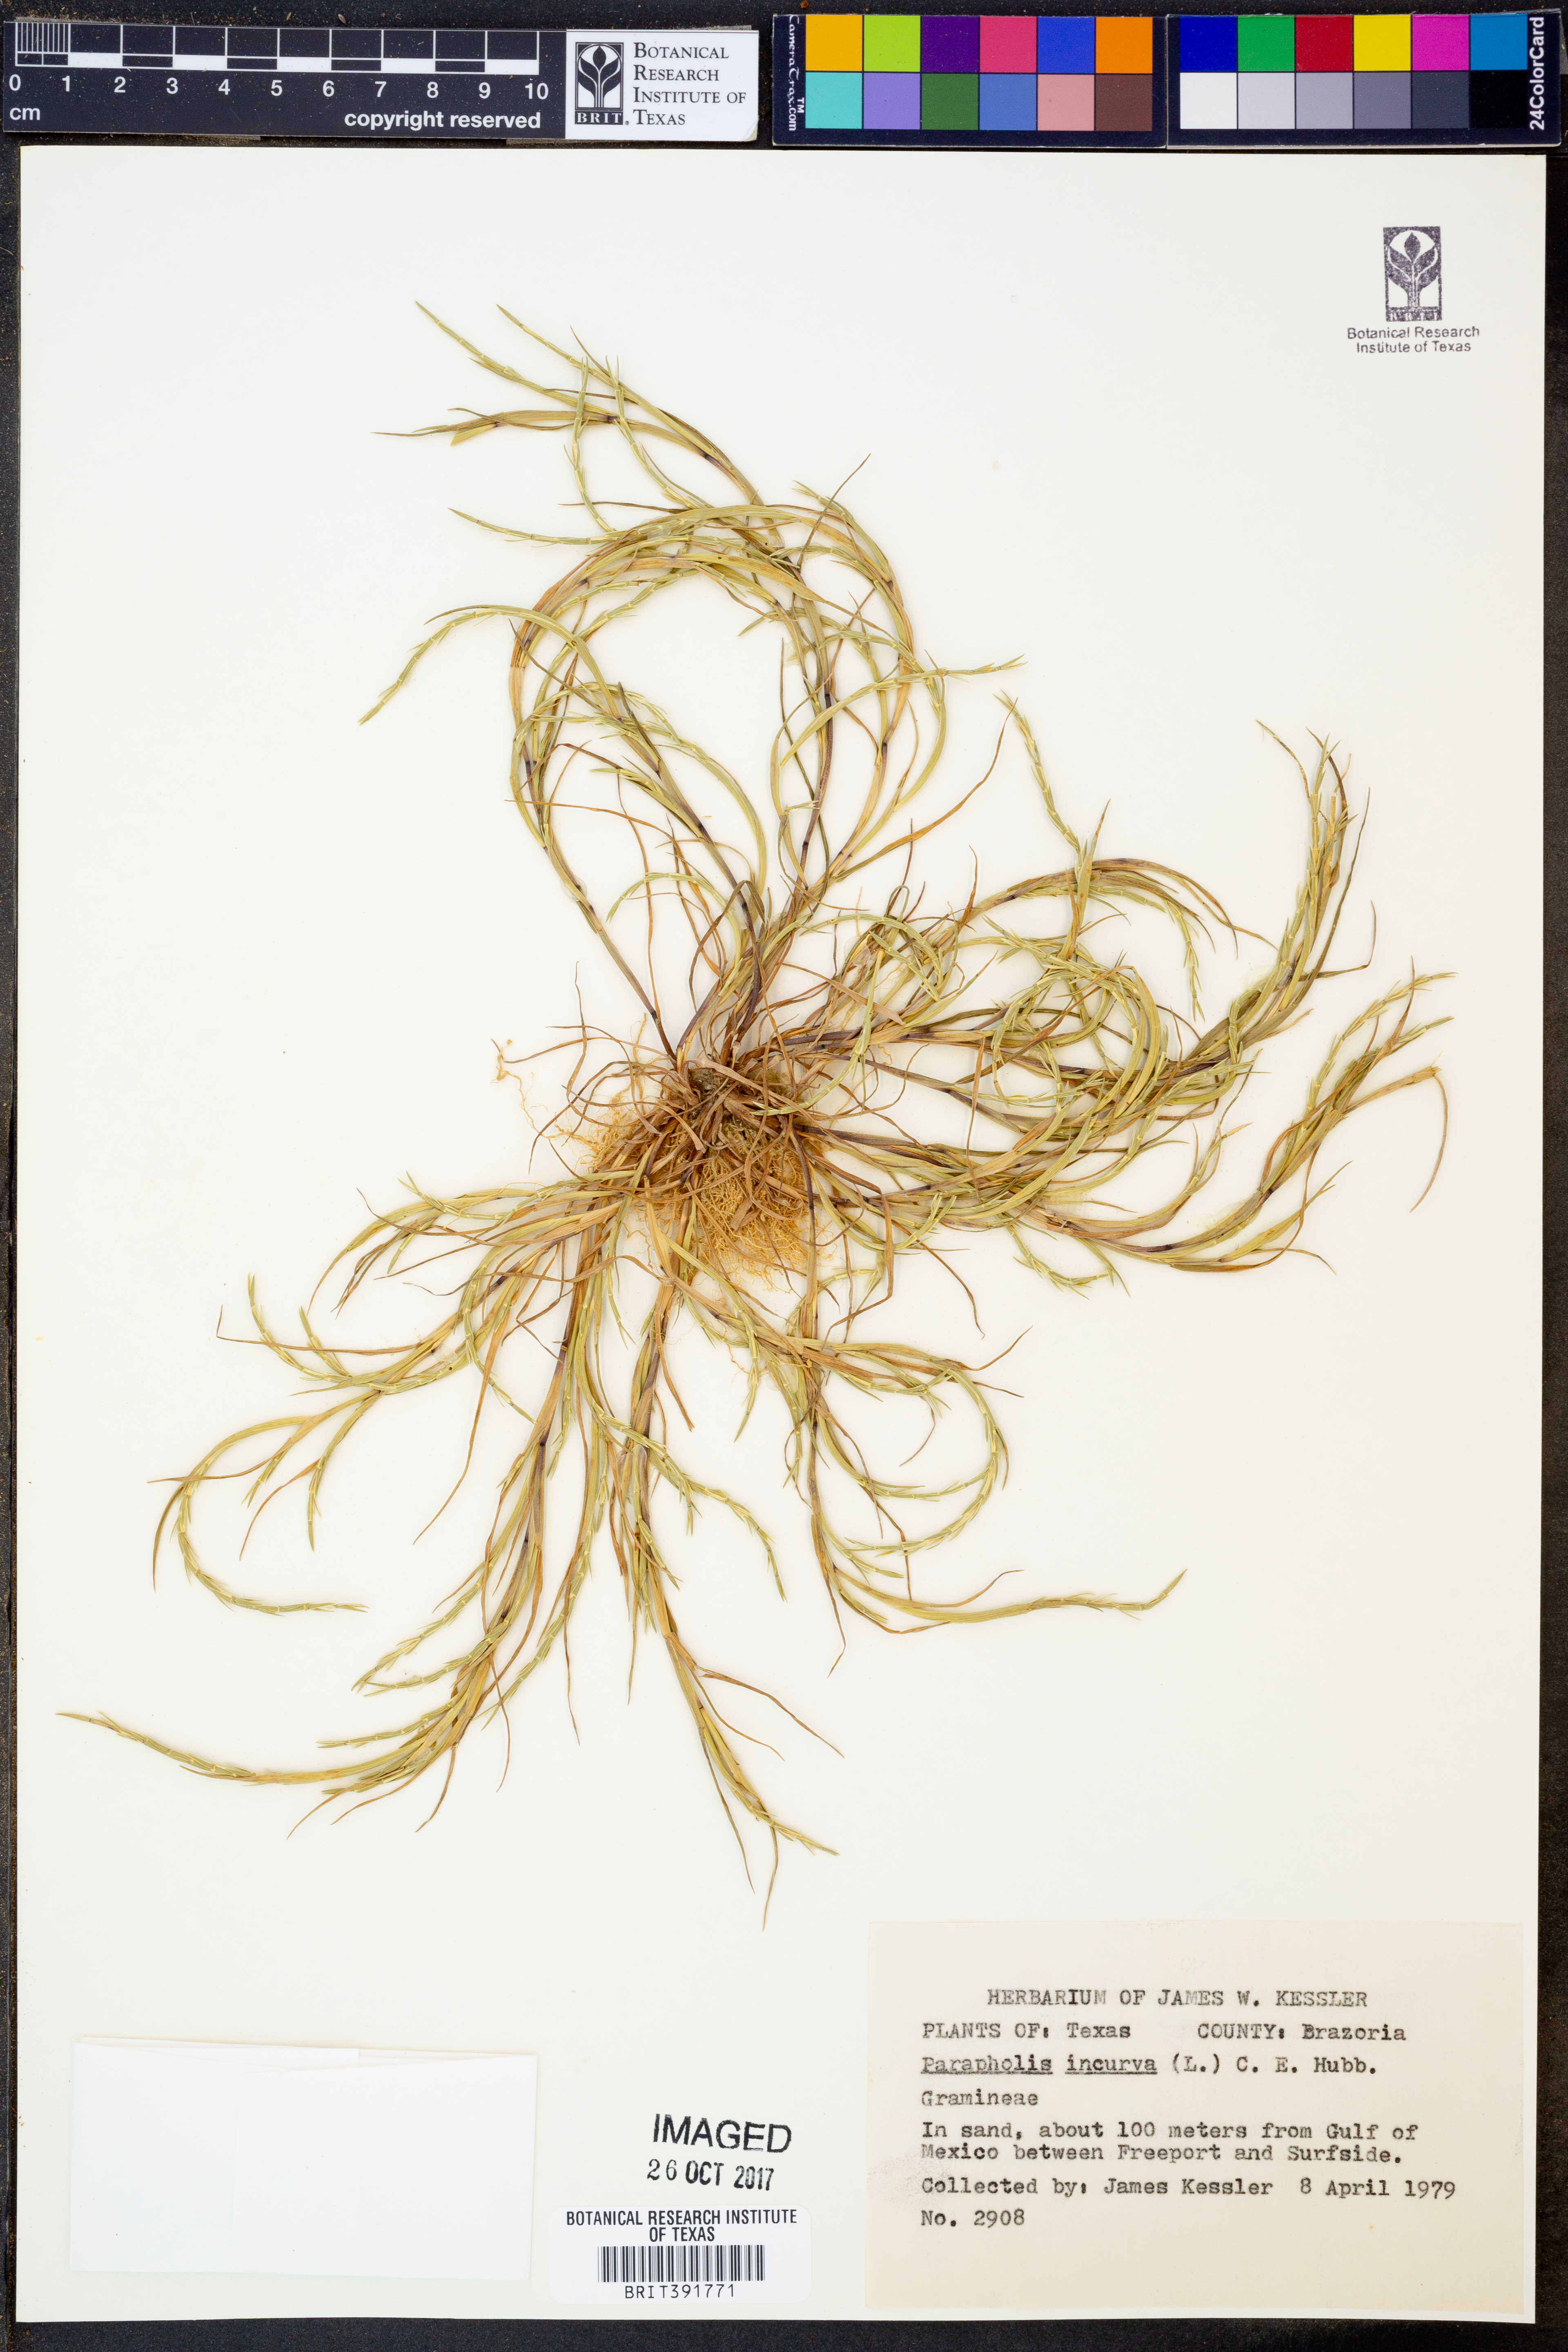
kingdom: Plantae
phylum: Tracheophyta
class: Liliopsida
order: Poales
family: Poaceae
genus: Parapholis
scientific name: Parapholis incurva
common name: Curved sicklegrass
